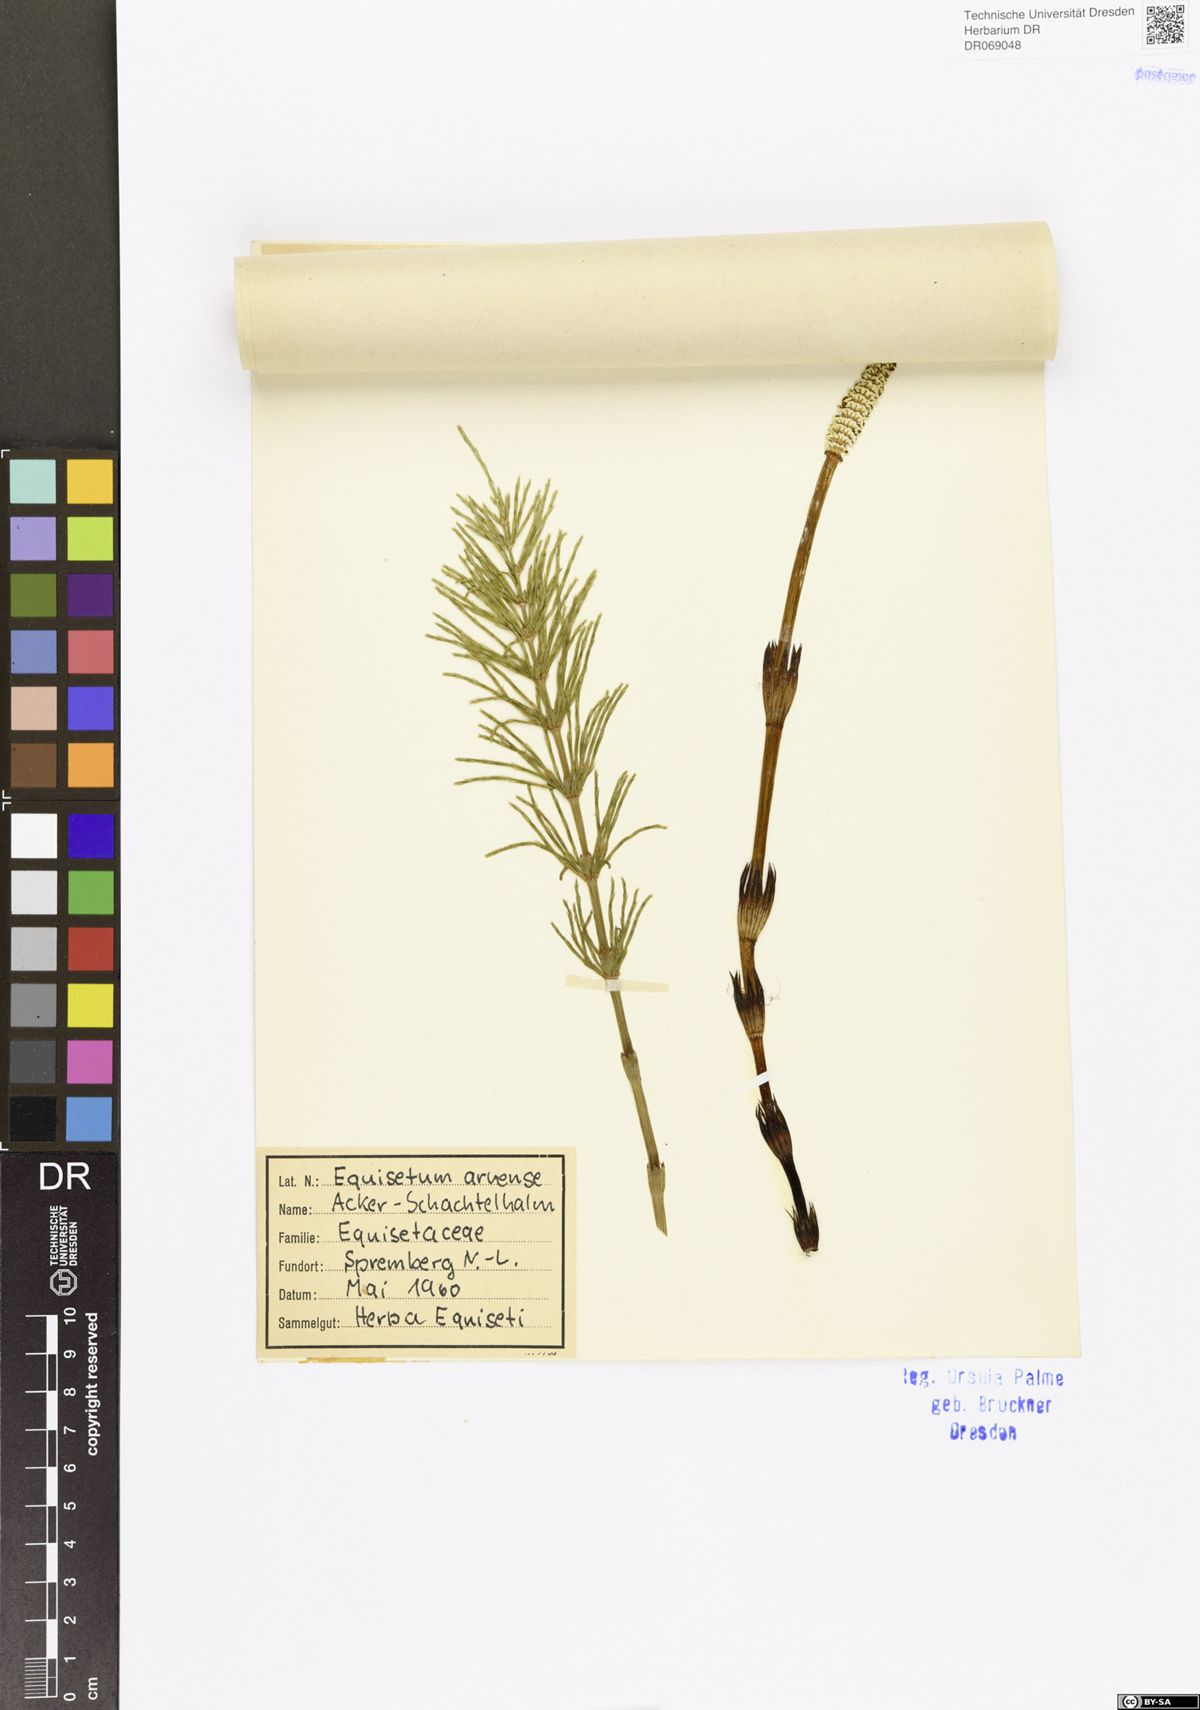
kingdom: Plantae
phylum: Tracheophyta
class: Polypodiopsida
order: Equisetales
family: Equisetaceae
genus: Equisetum
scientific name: Equisetum arvense
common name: Field horsetail
